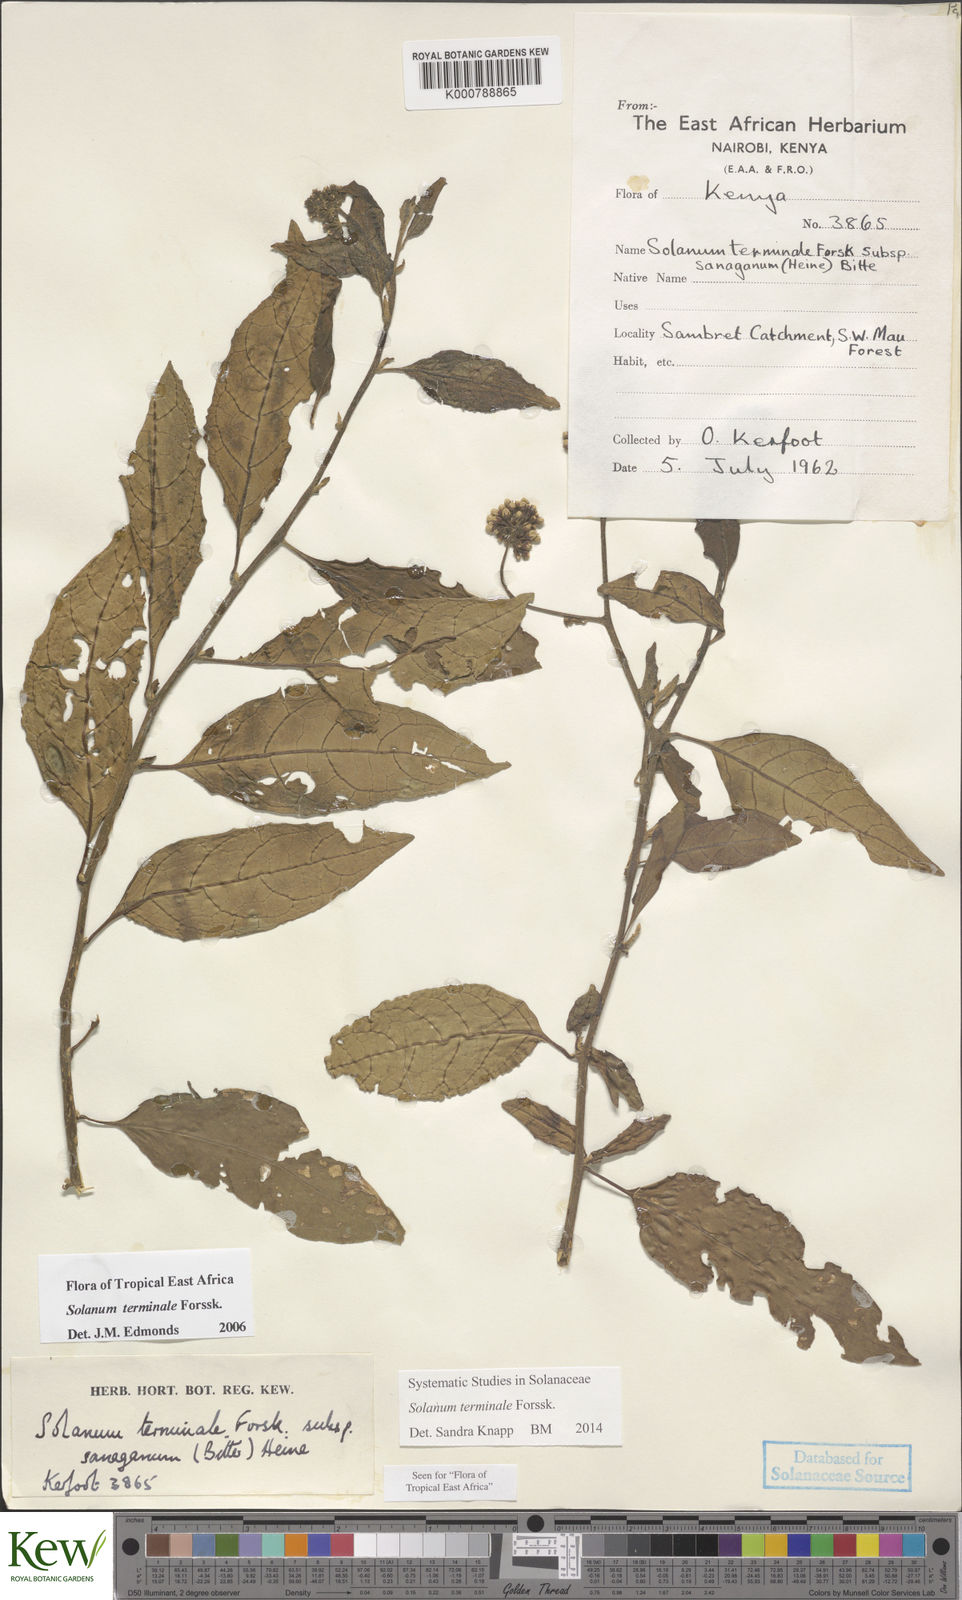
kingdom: Plantae
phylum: Tracheophyta
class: Magnoliopsida
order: Solanales
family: Solanaceae
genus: Solanum
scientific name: Solanum terminale
